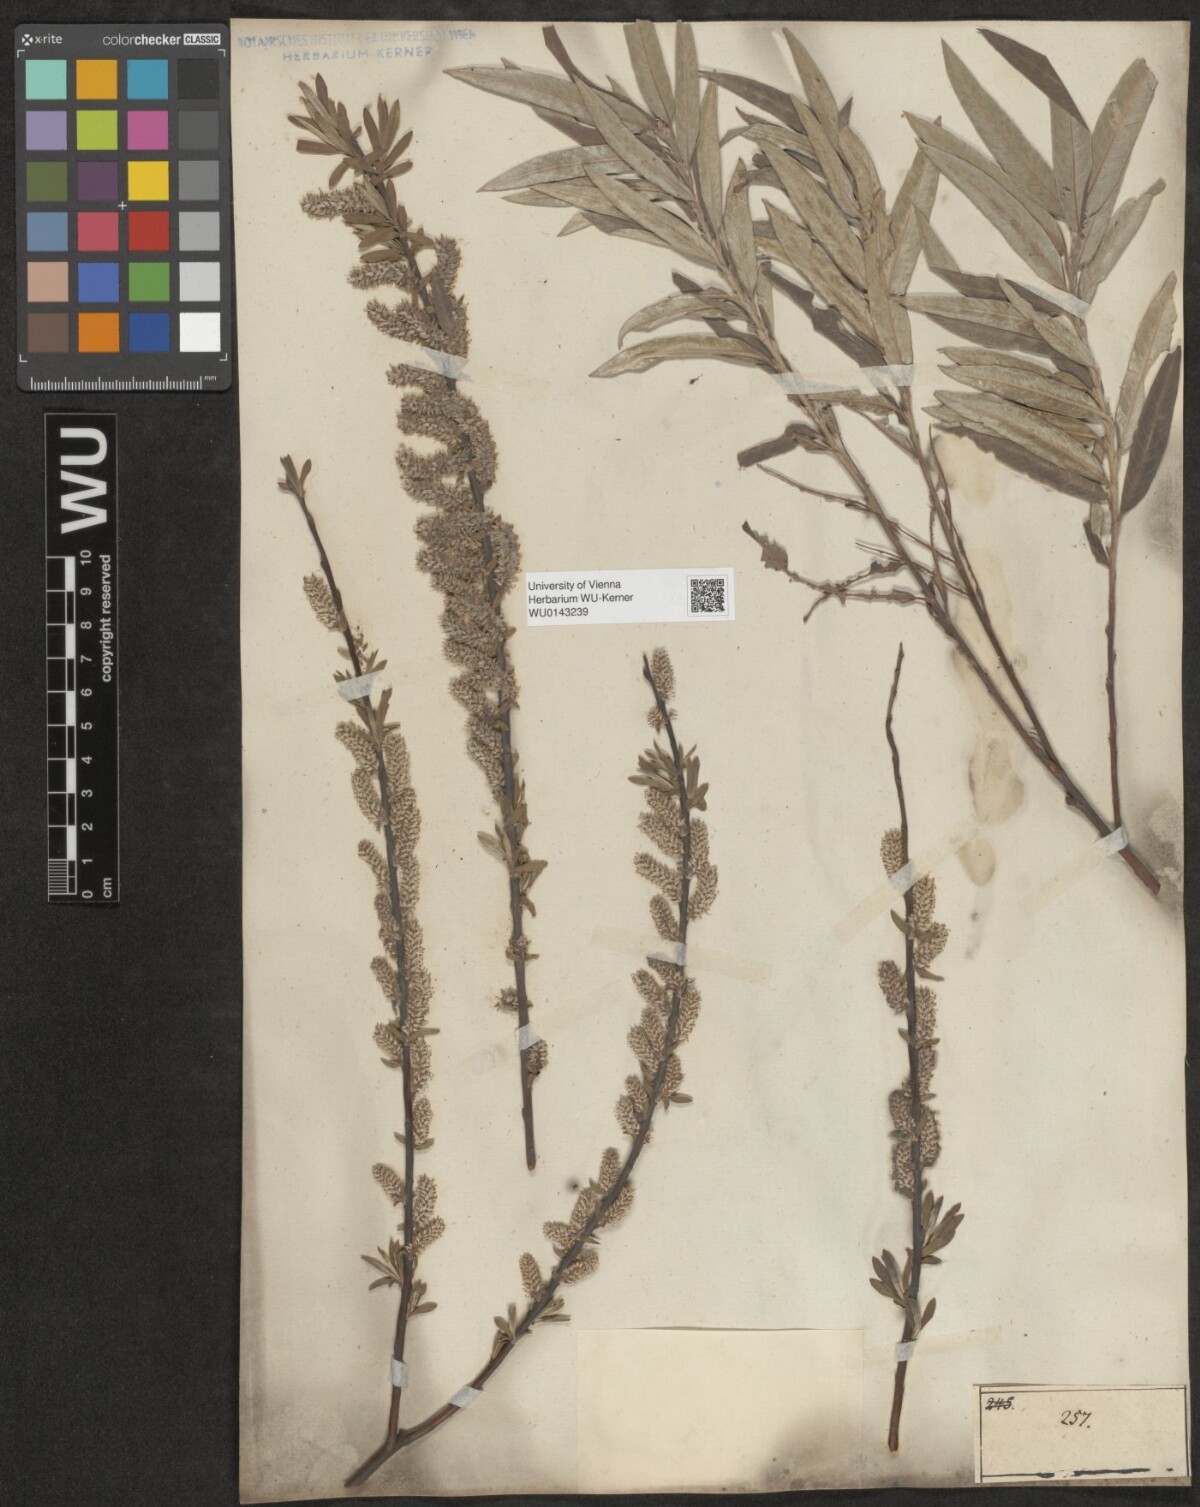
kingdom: Plantae
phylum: Tracheophyta
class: Magnoliopsida
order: Malpighiales
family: Salicaceae
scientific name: Salicaceae
